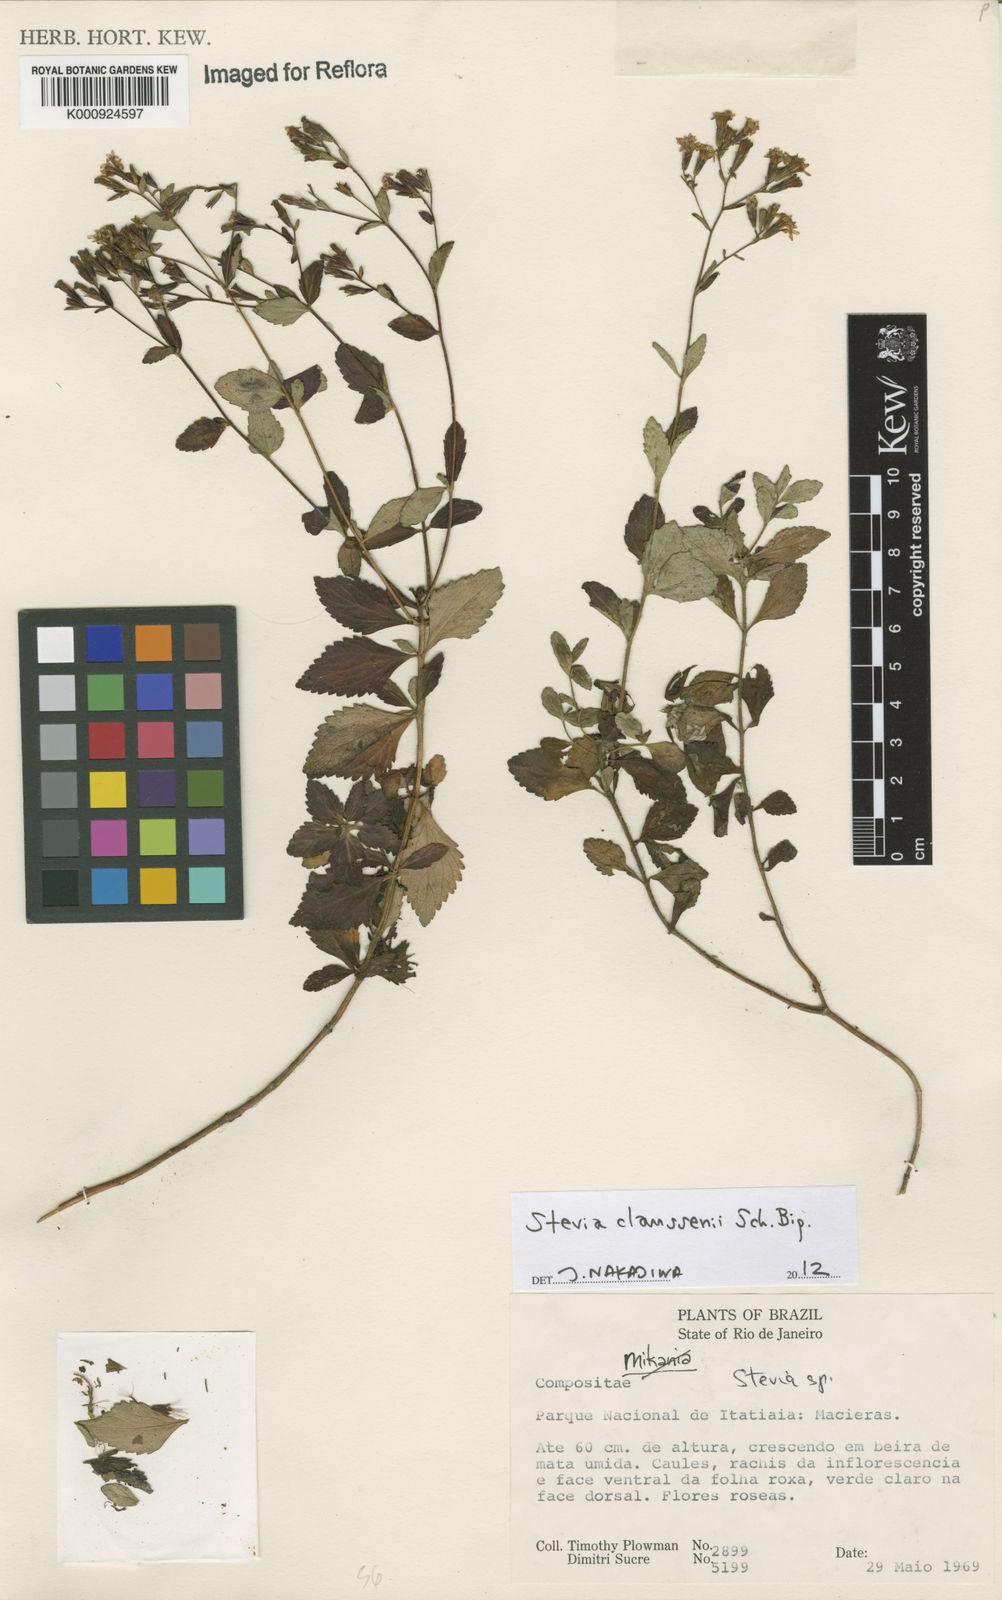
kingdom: Plantae
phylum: Tracheophyta
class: Magnoliopsida
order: Asterales
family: Asteraceae
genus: Stevia
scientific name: Stevia claussenii
